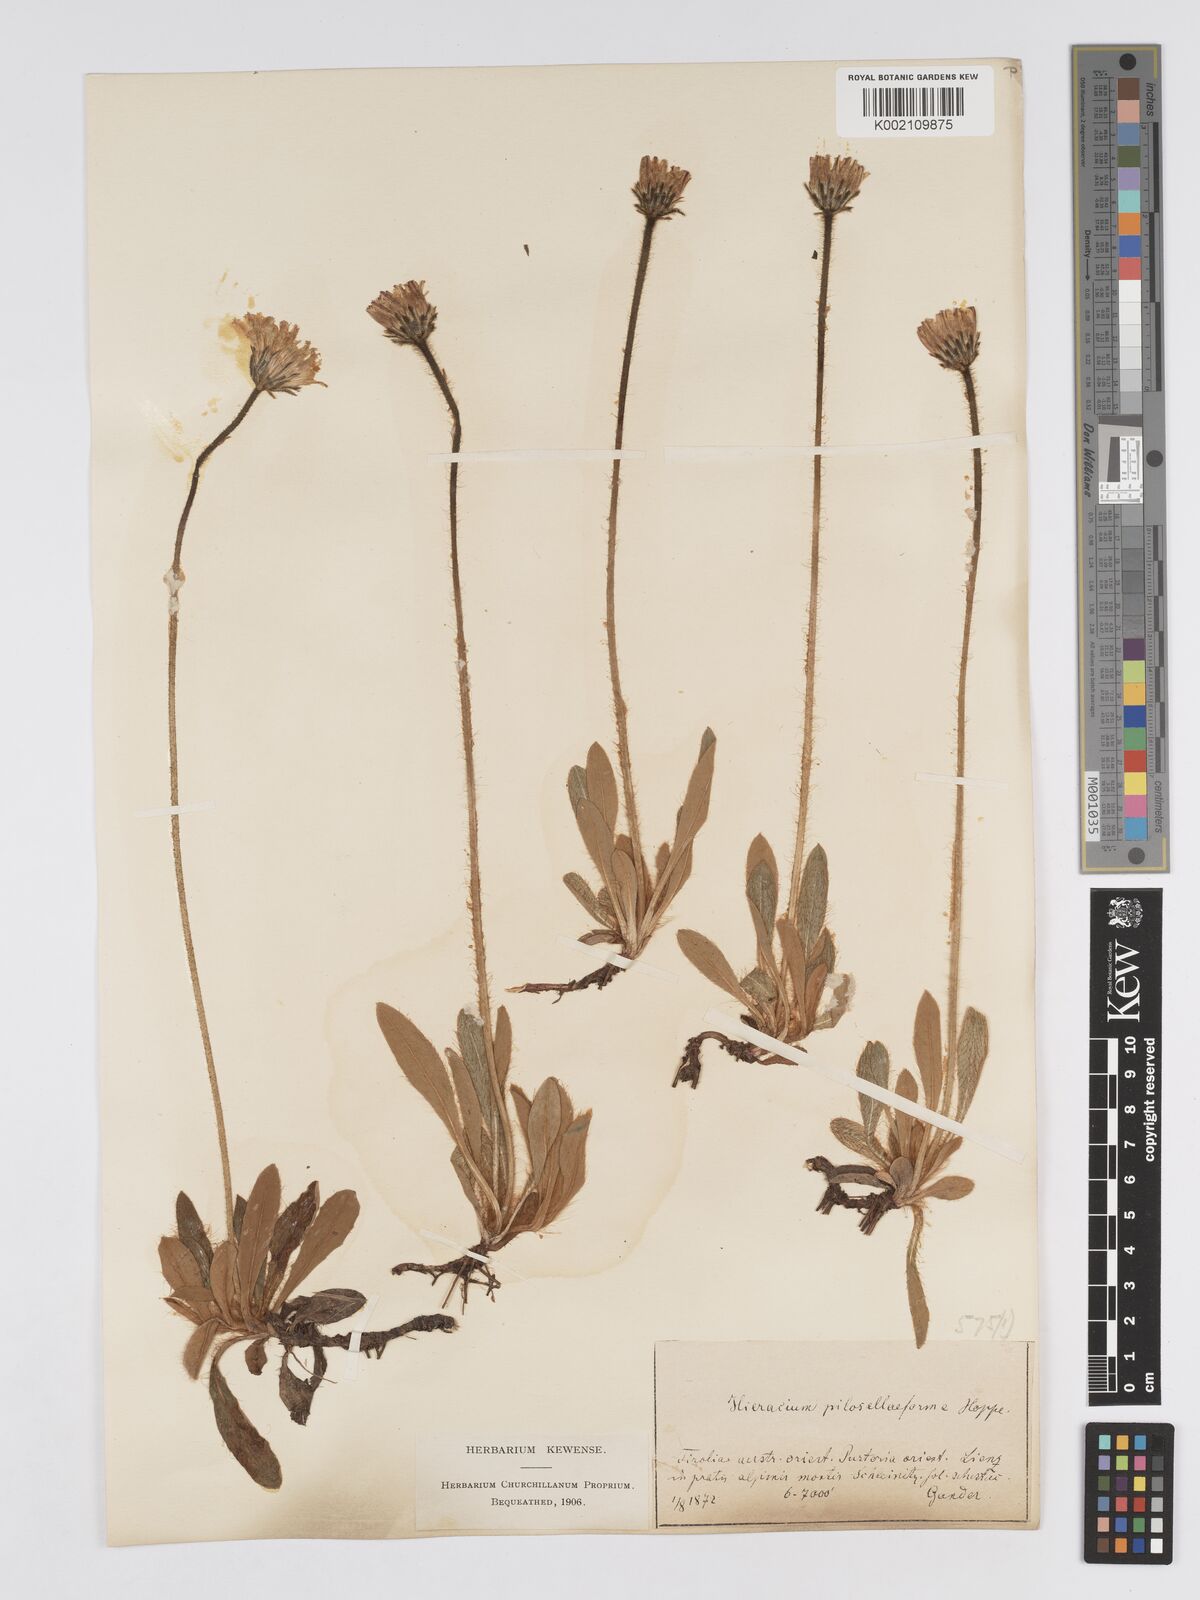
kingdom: Plantae
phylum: Tracheophyta
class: Magnoliopsida
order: Asterales
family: Asteraceae
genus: Pilosella
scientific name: Pilosella hoppeana
